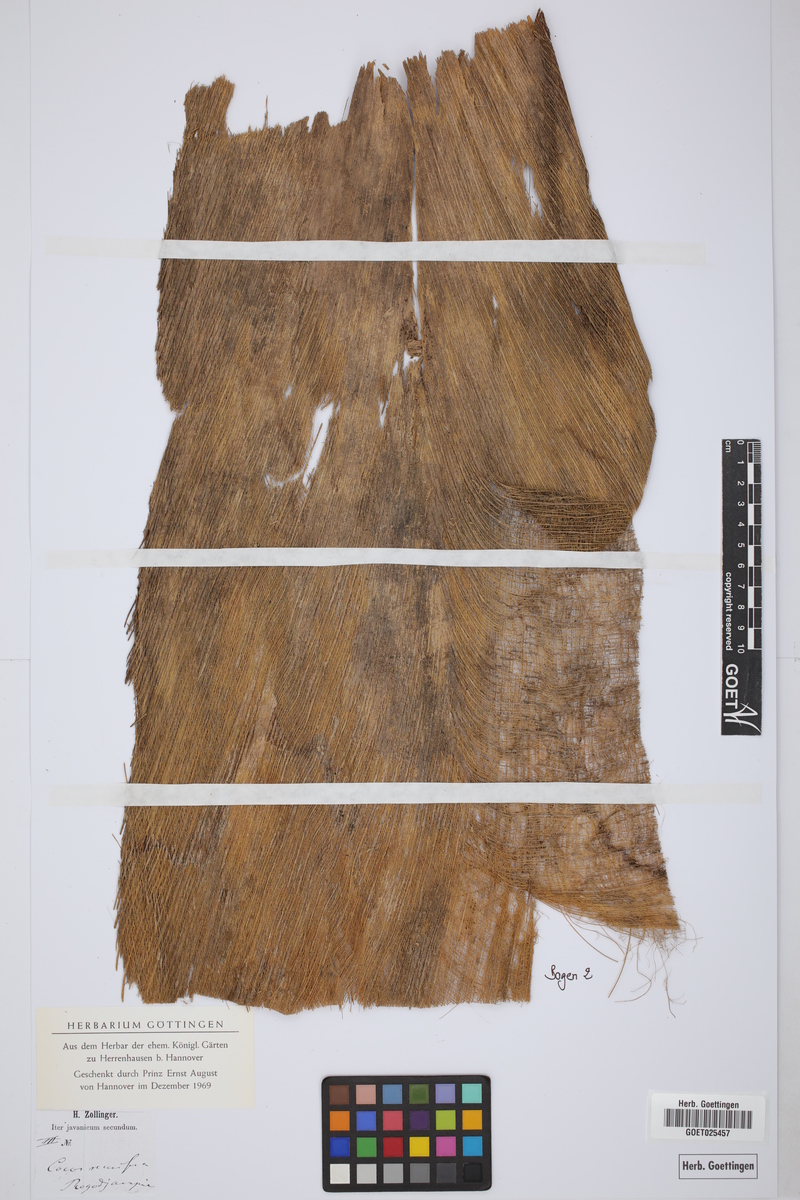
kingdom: Plantae
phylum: Tracheophyta
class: Liliopsida
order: Arecales
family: Arecaceae
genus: Cocos
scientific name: Cocos nucifera
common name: Coconut palm
